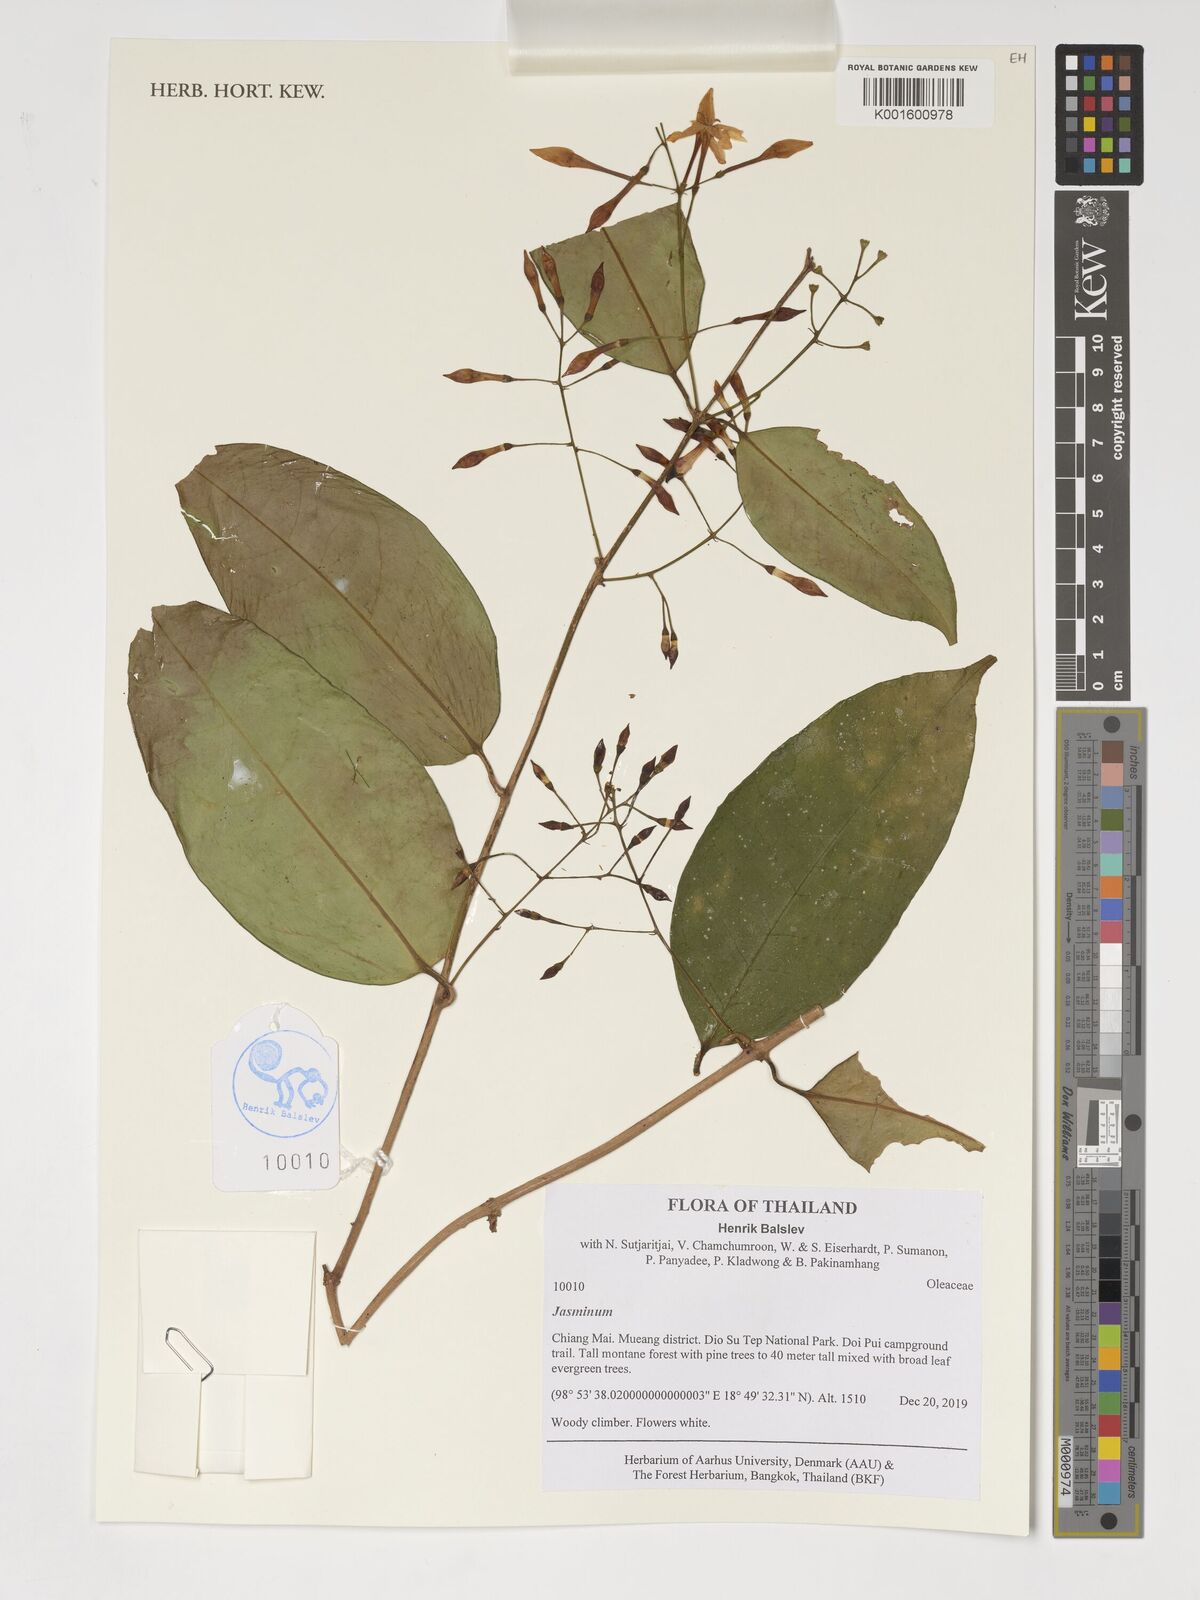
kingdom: Plantae
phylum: Tracheophyta
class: Magnoliopsida
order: Lamiales
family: Oleaceae
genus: Jasminum
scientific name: Jasminum
